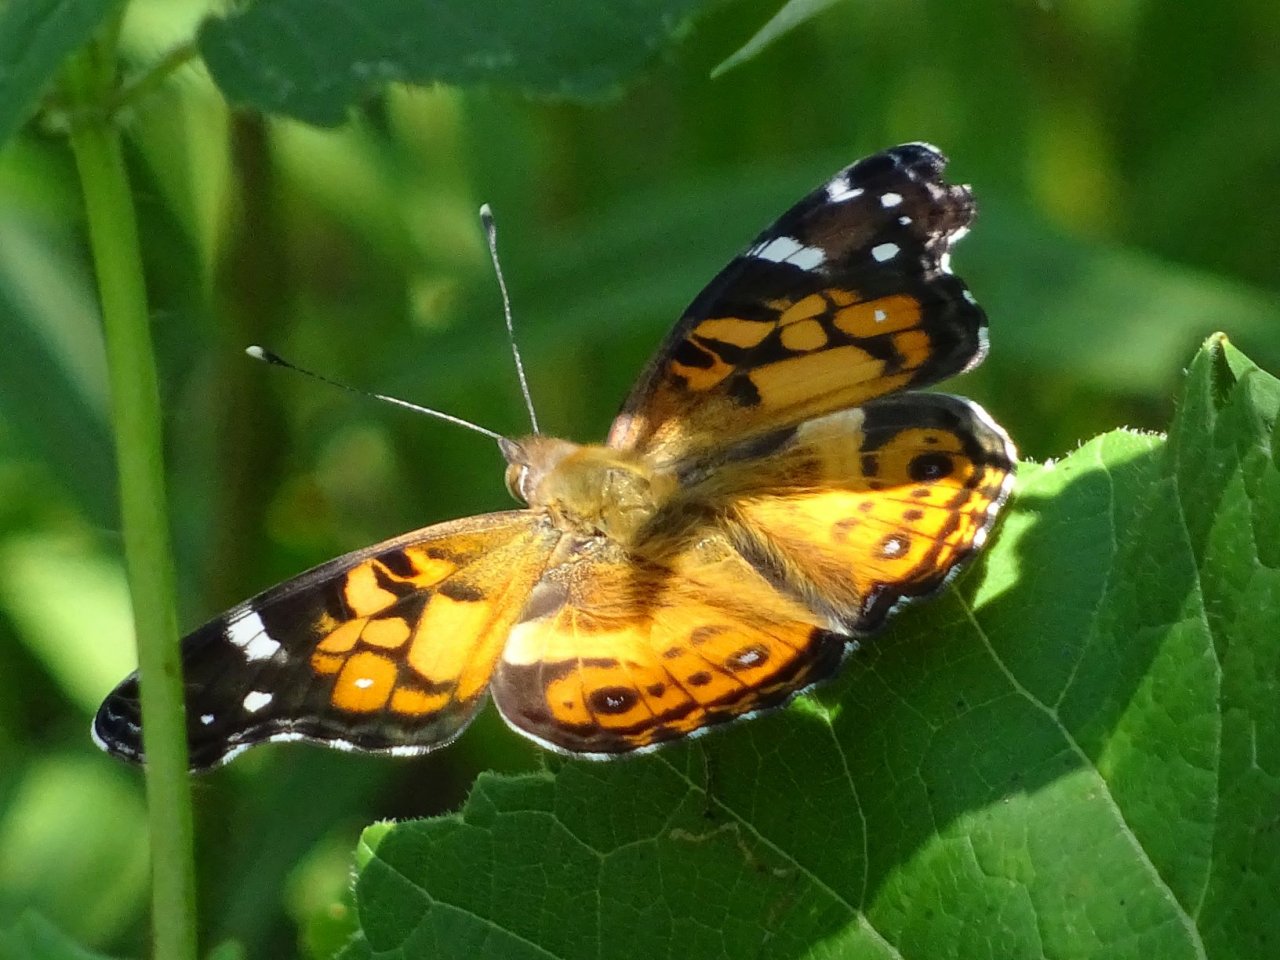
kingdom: Animalia
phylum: Arthropoda
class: Insecta
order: Lepidoptera
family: Nymphalidae
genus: Vanessa
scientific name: Vanessa virginiensis
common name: American Lady
